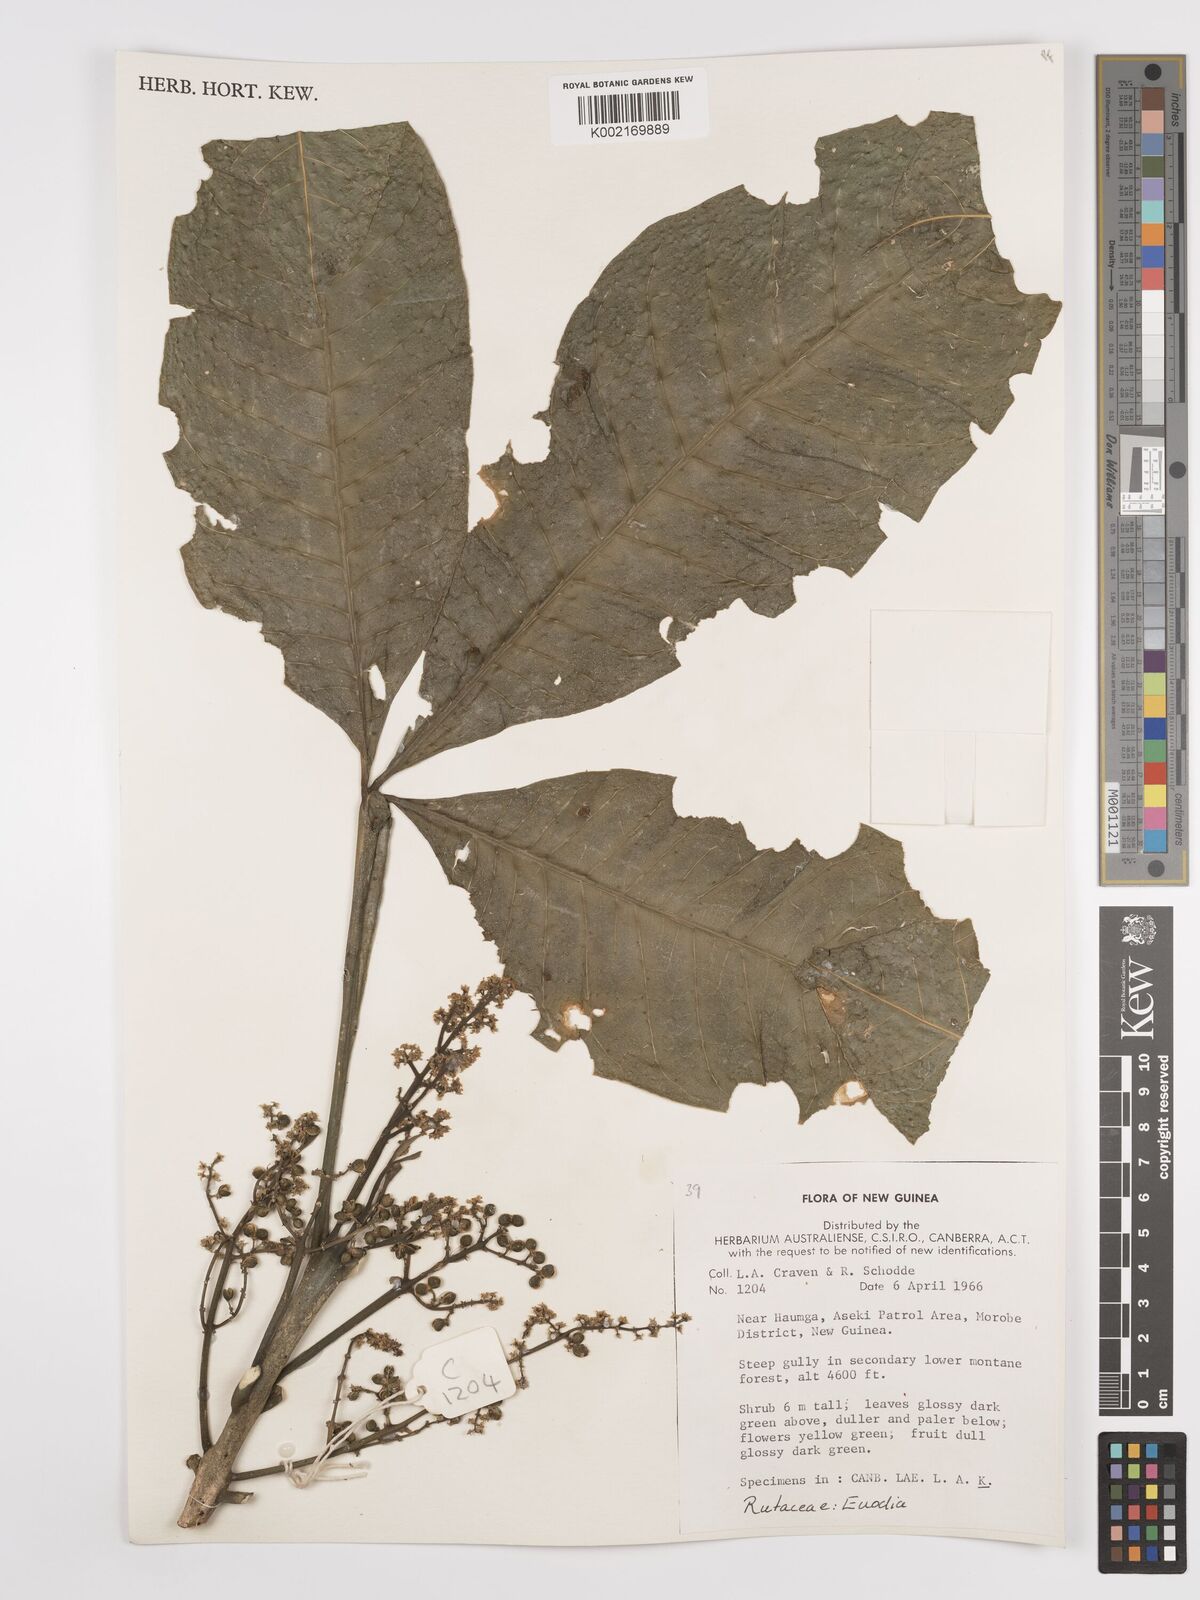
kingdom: Plantae
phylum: Tracheophyta
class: Magnoliopsida
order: Sapindales
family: Rutaceae
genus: Euodia
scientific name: Euodia
